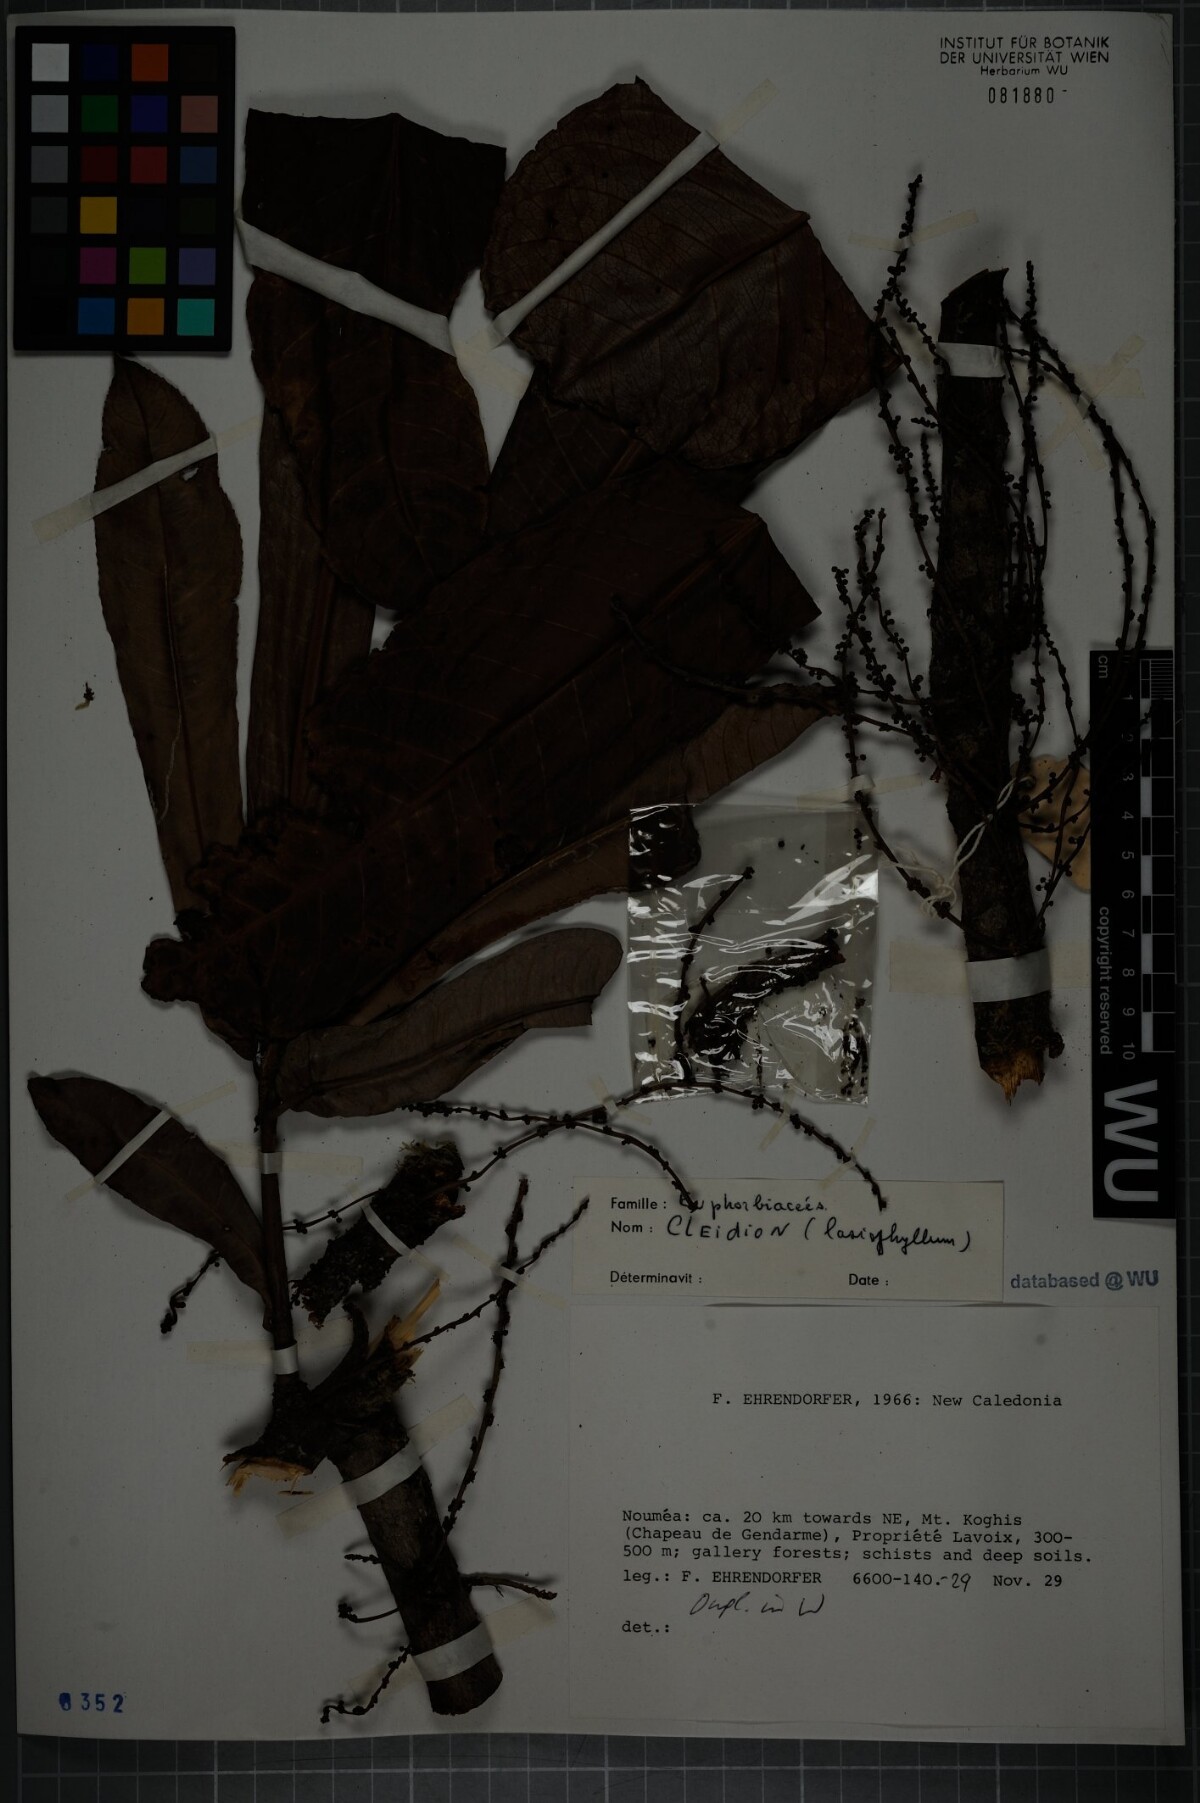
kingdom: Plantae
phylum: Tracheophyta
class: Magnoliopsida
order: Malpighiales
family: Euphorbiaceae
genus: Cleidion
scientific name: Cleidion lasiophyllum
